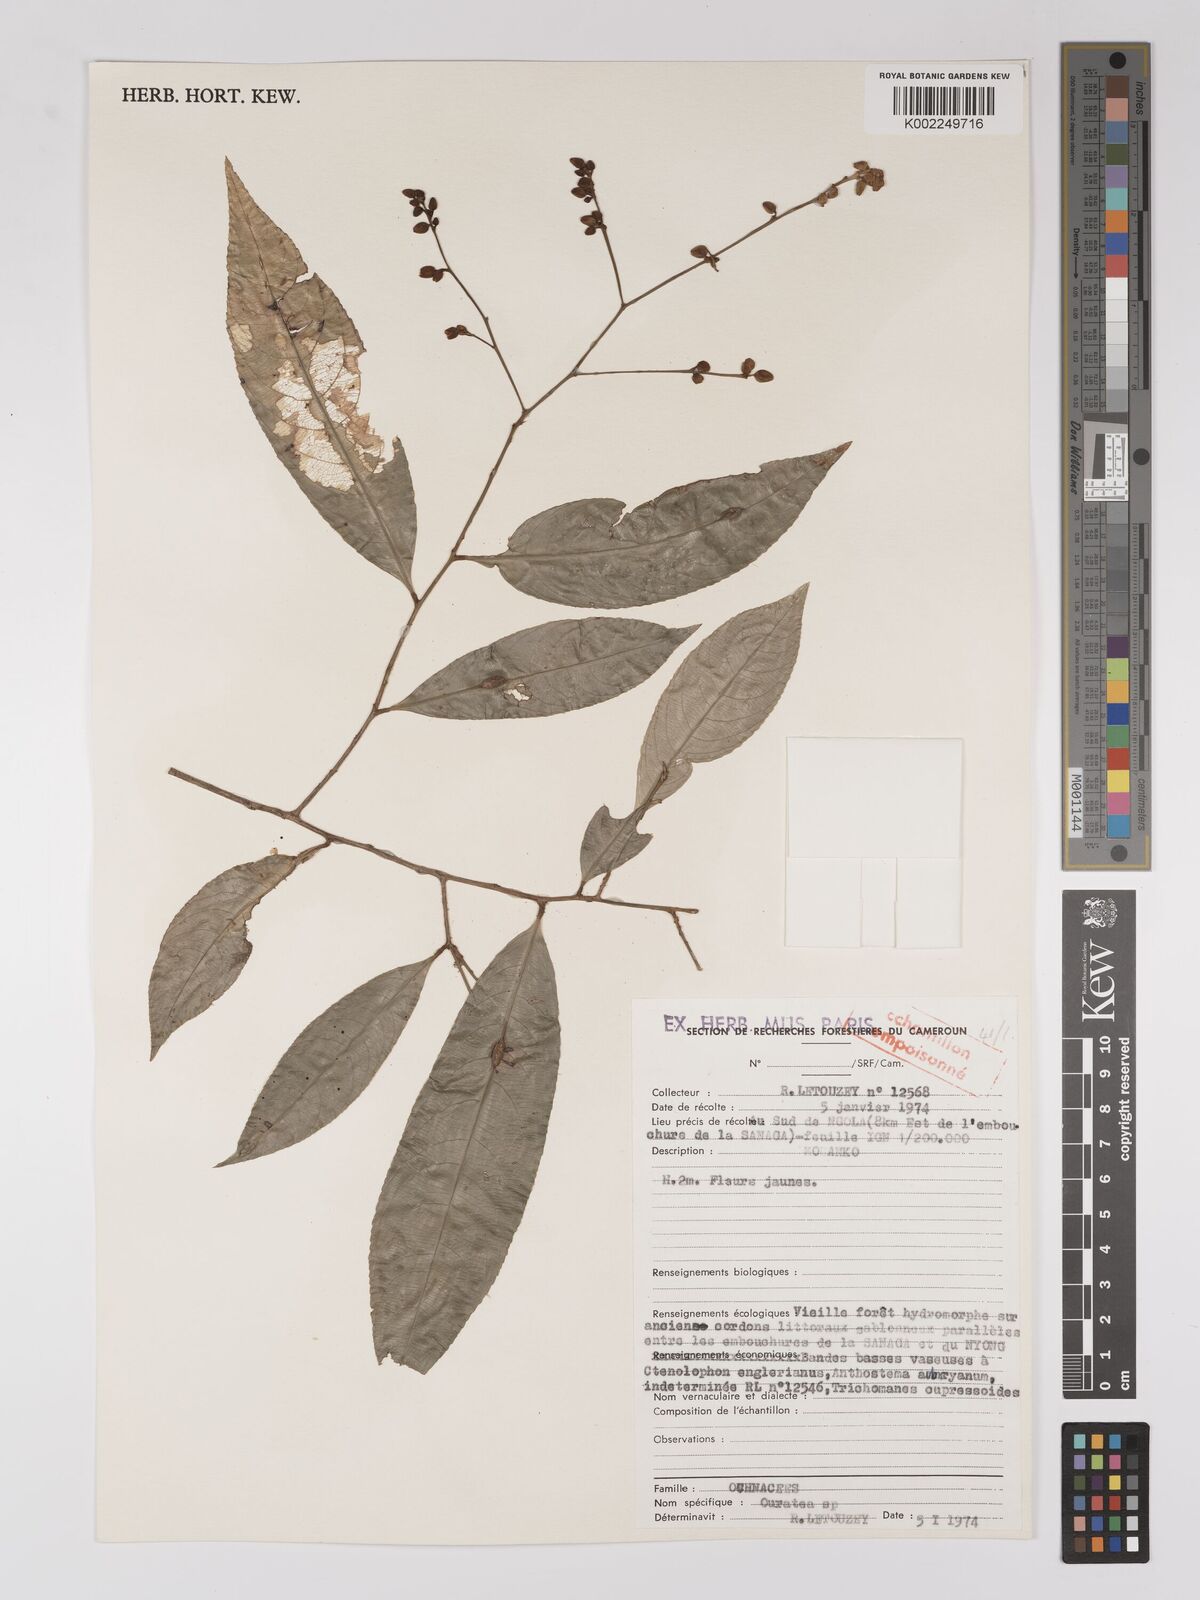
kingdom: Plantae
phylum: Tracheophyta
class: Magnoliopsida
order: Malpighiales
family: Ochnaceae
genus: Campylospermum
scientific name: Campylospermum
